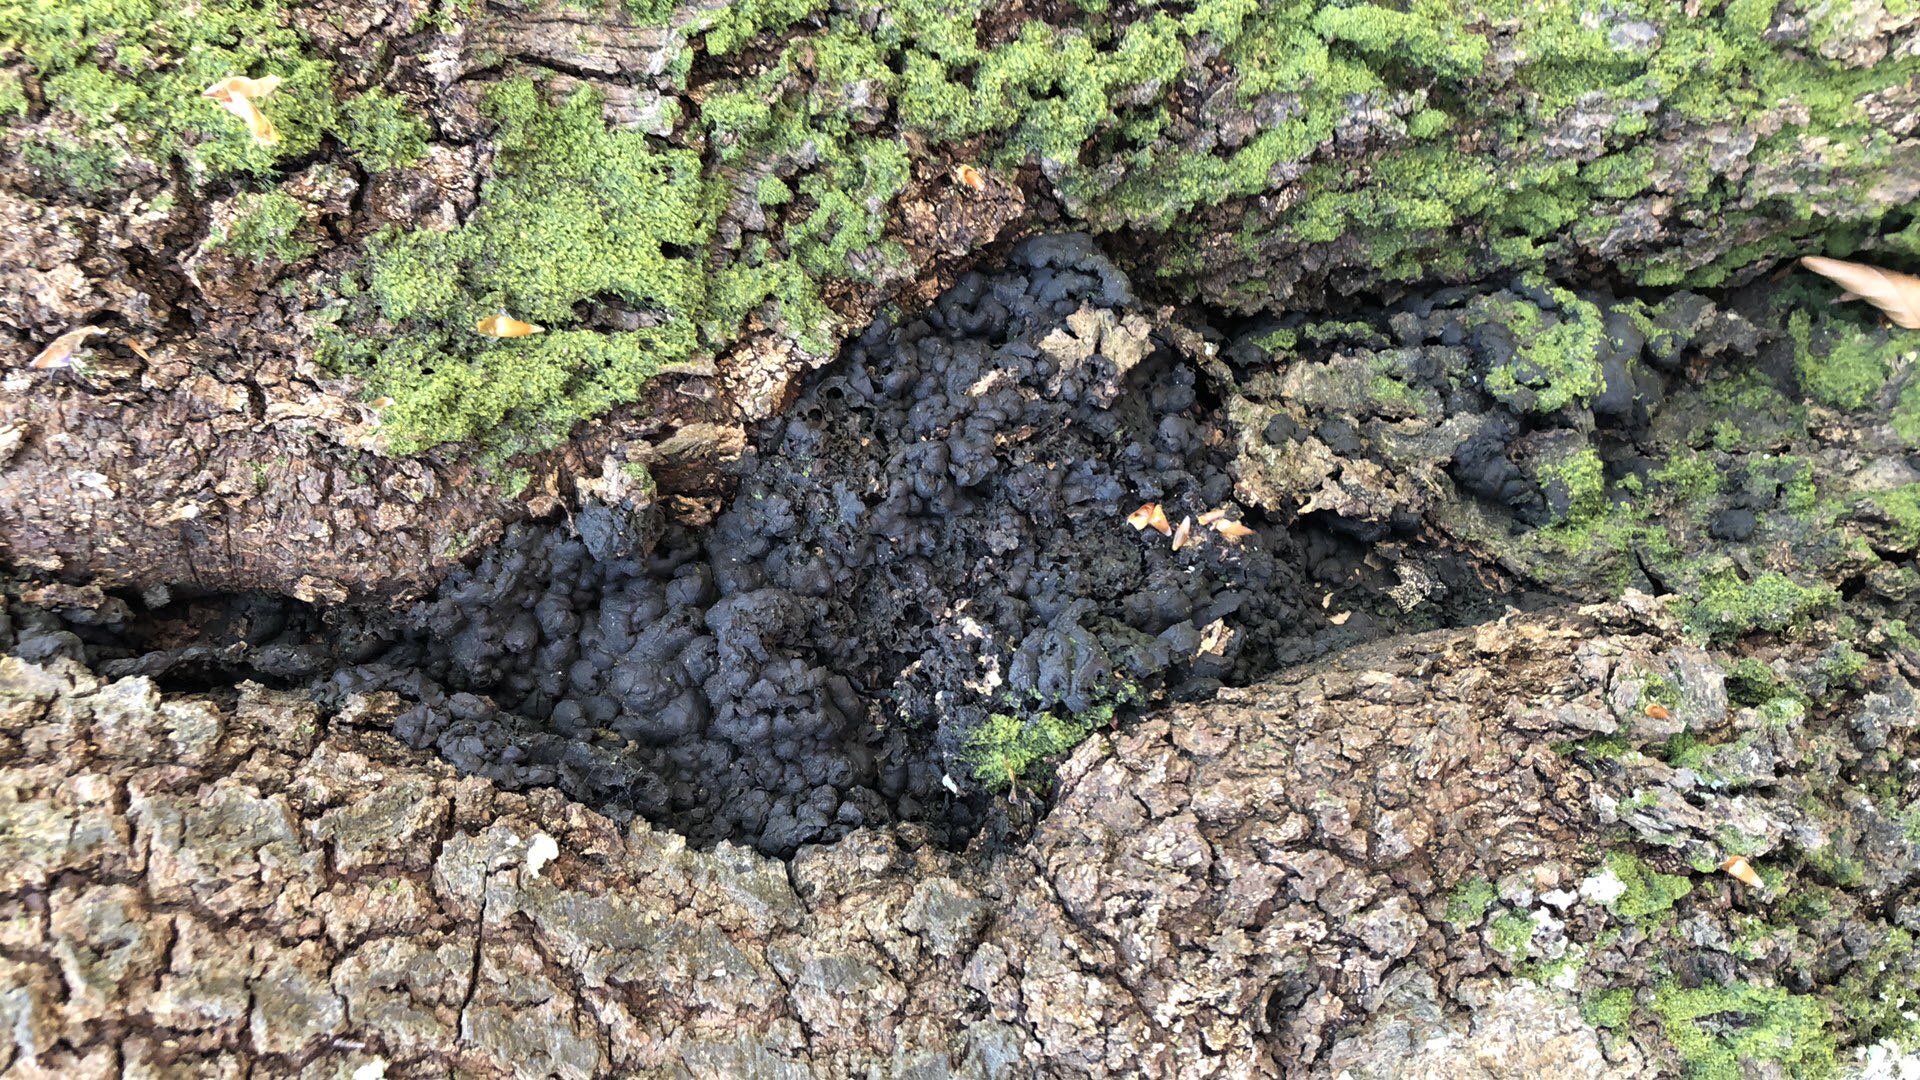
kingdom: Fungi
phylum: Ascomycota
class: Sordariomycetes
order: Xylariales
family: Xylariaceae
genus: Kretzschmaria
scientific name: Kretzschmaria deusta
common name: stor kulsvamp
